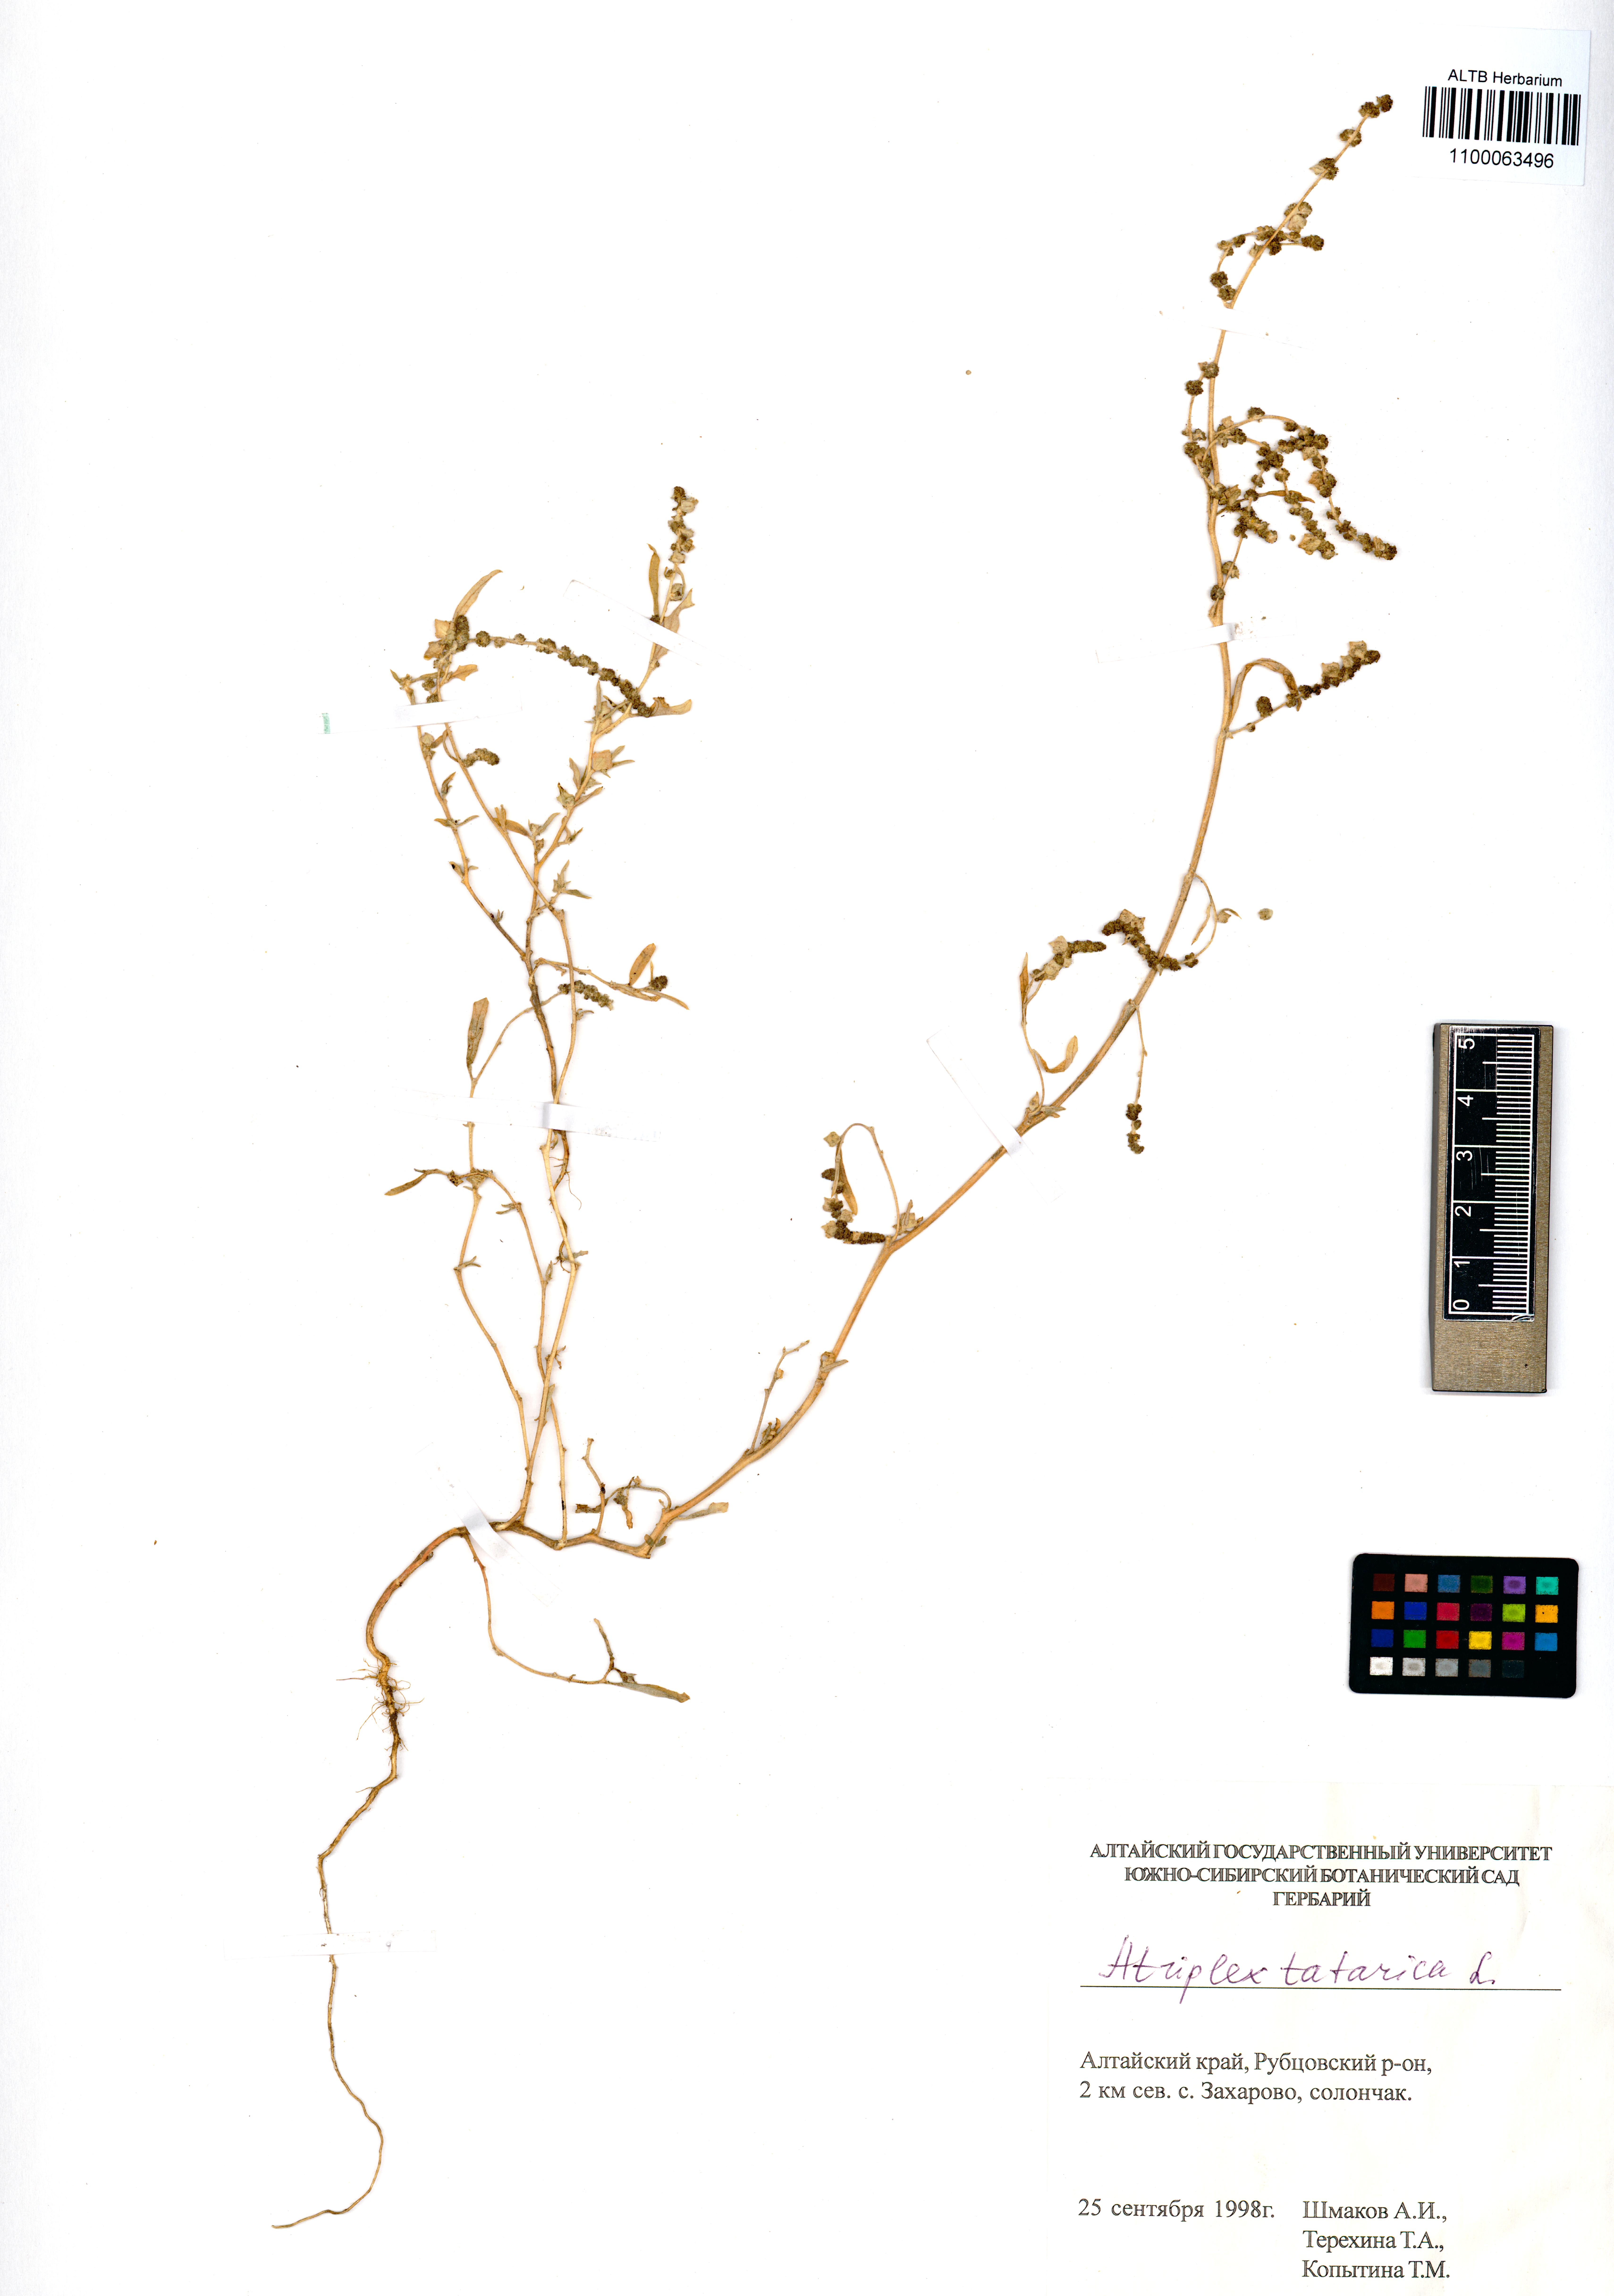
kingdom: Plantae
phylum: Tracheophyta
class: Magnoliopsida
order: Caryophyllales
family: Amaranthaceae
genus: Atriplex
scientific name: Atriplex tatarica
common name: Tatarian orache
